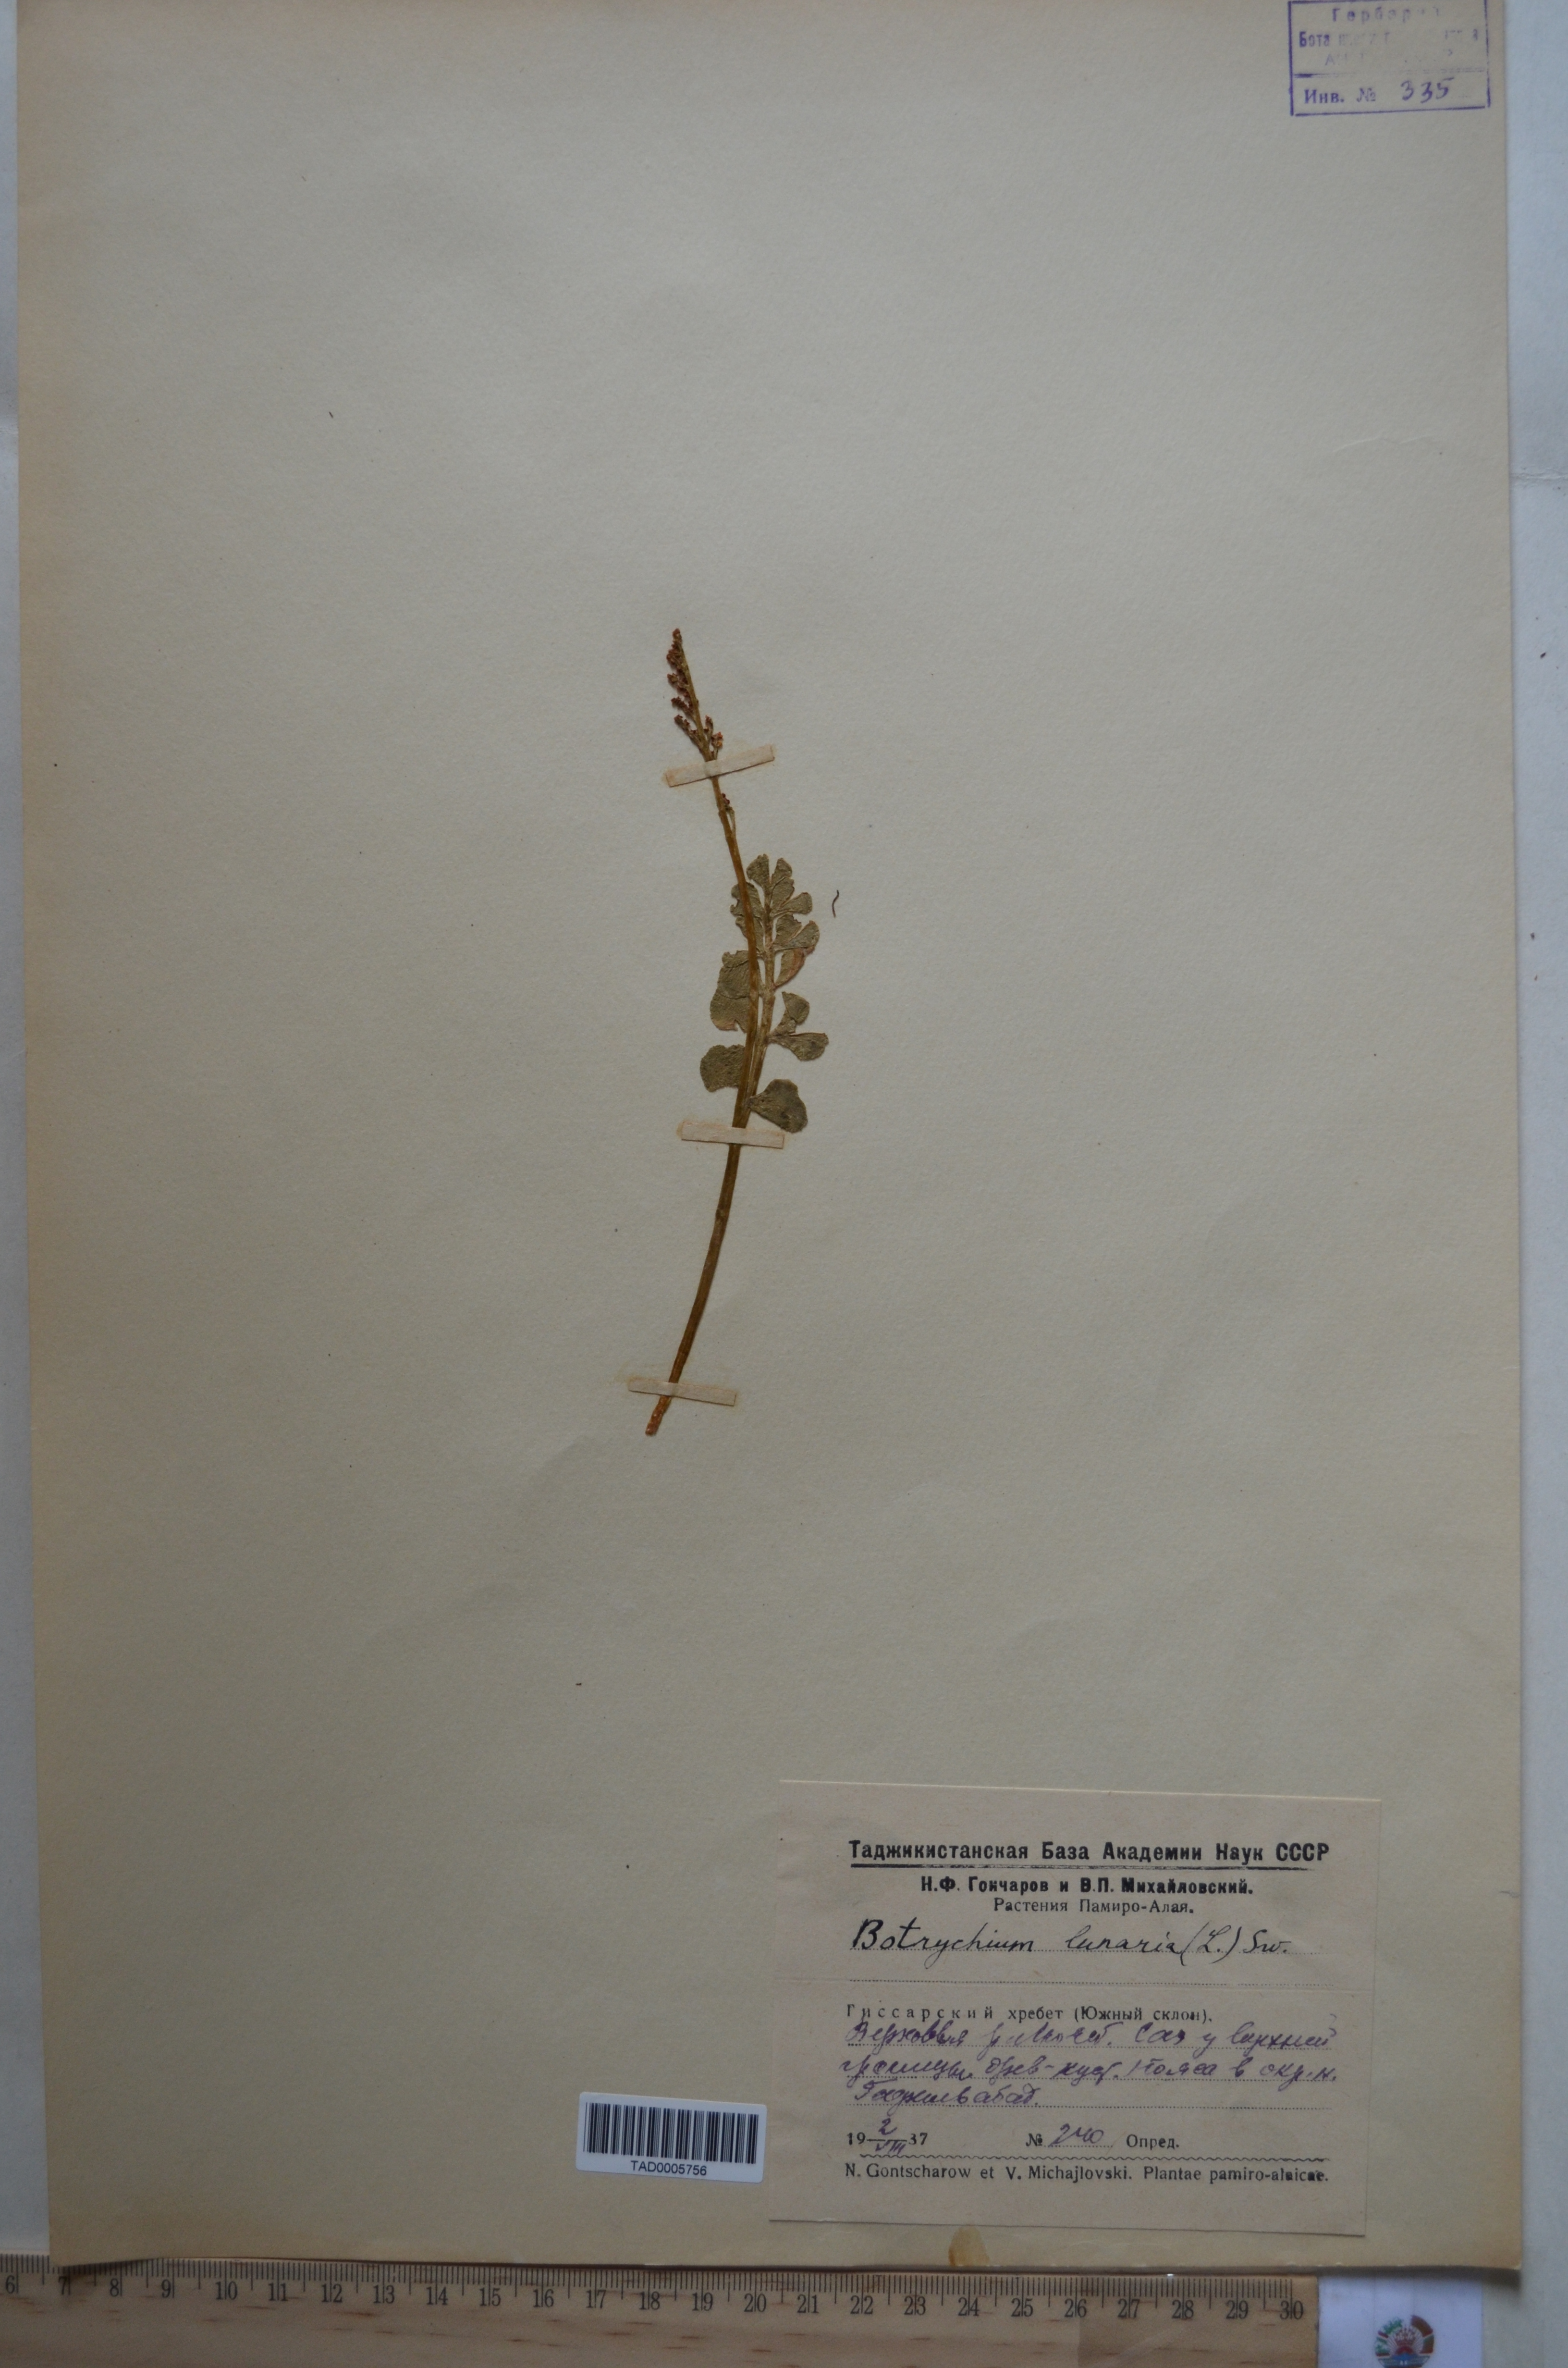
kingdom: Plantae
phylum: Tracheophyta
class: Polypodiopsida
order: Ophioglossales
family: Ophioglossaceae
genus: Botrychium
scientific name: Botrychium lunaria
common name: Moonwort
